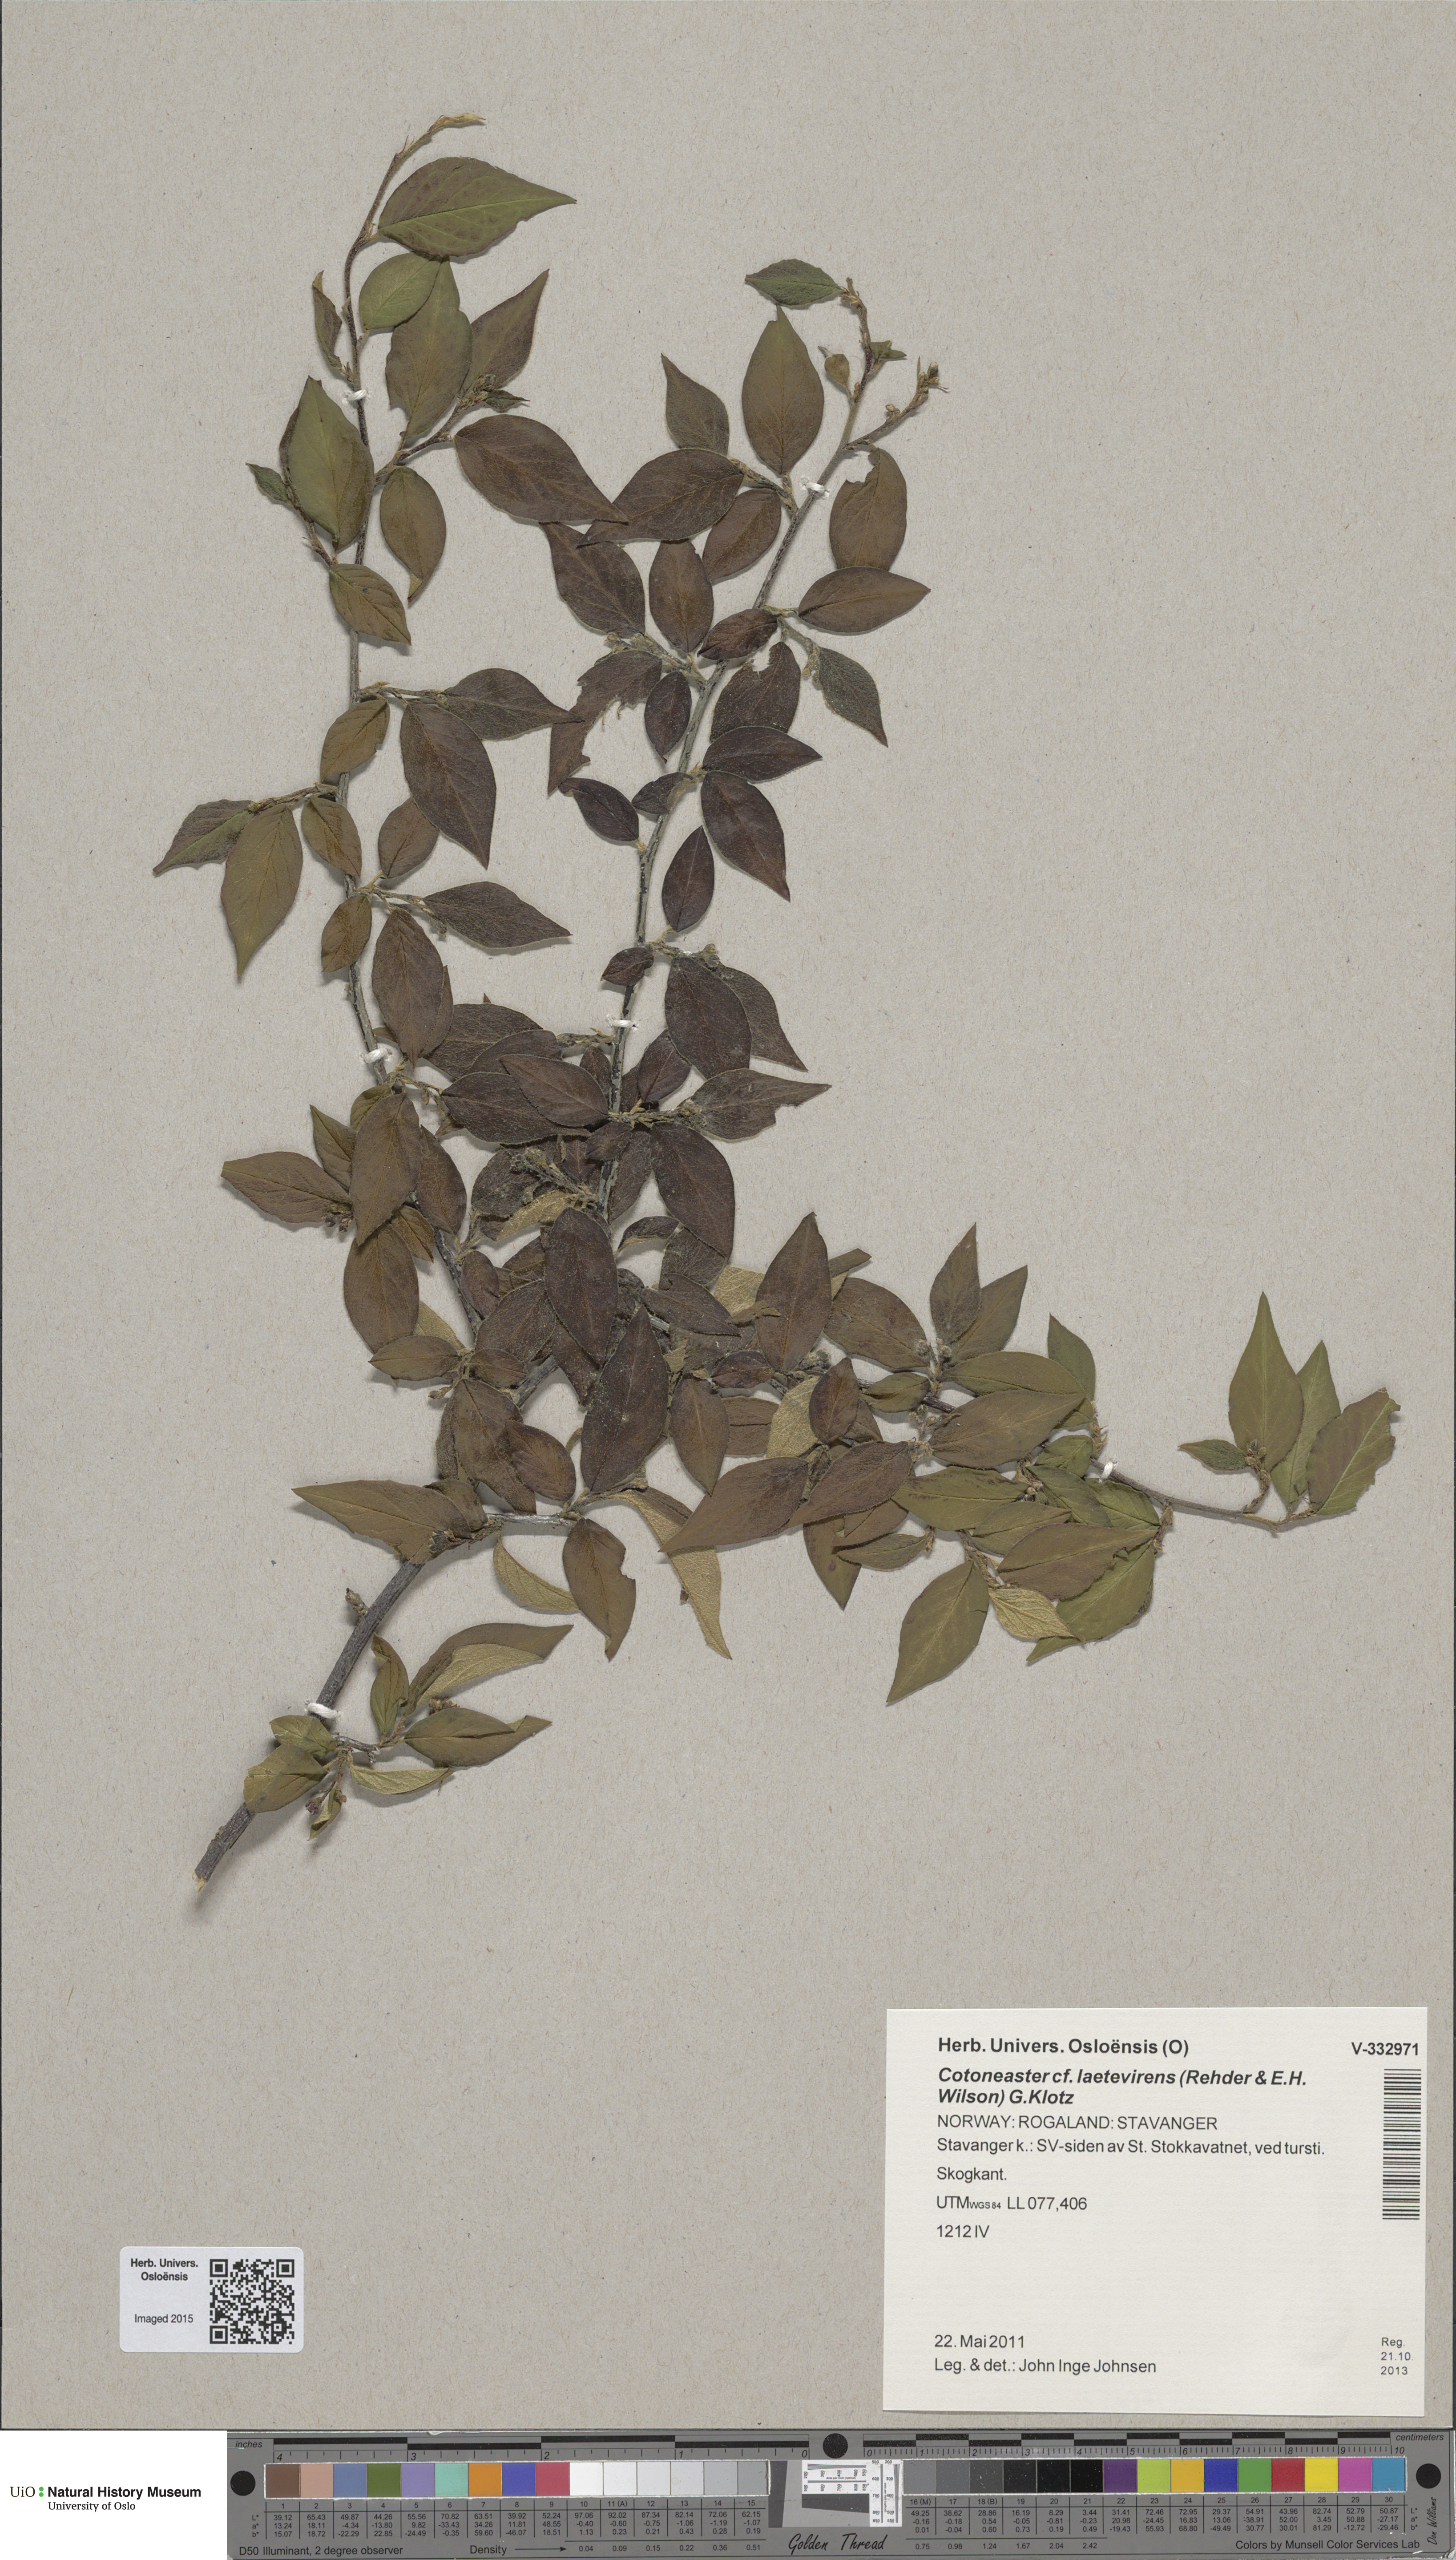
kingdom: Plantae
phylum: Tracheophyta
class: Magnoliopsida
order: Rosales
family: Rosaceae
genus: Cotoneaster
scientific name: Cotoneaster ambiguus
